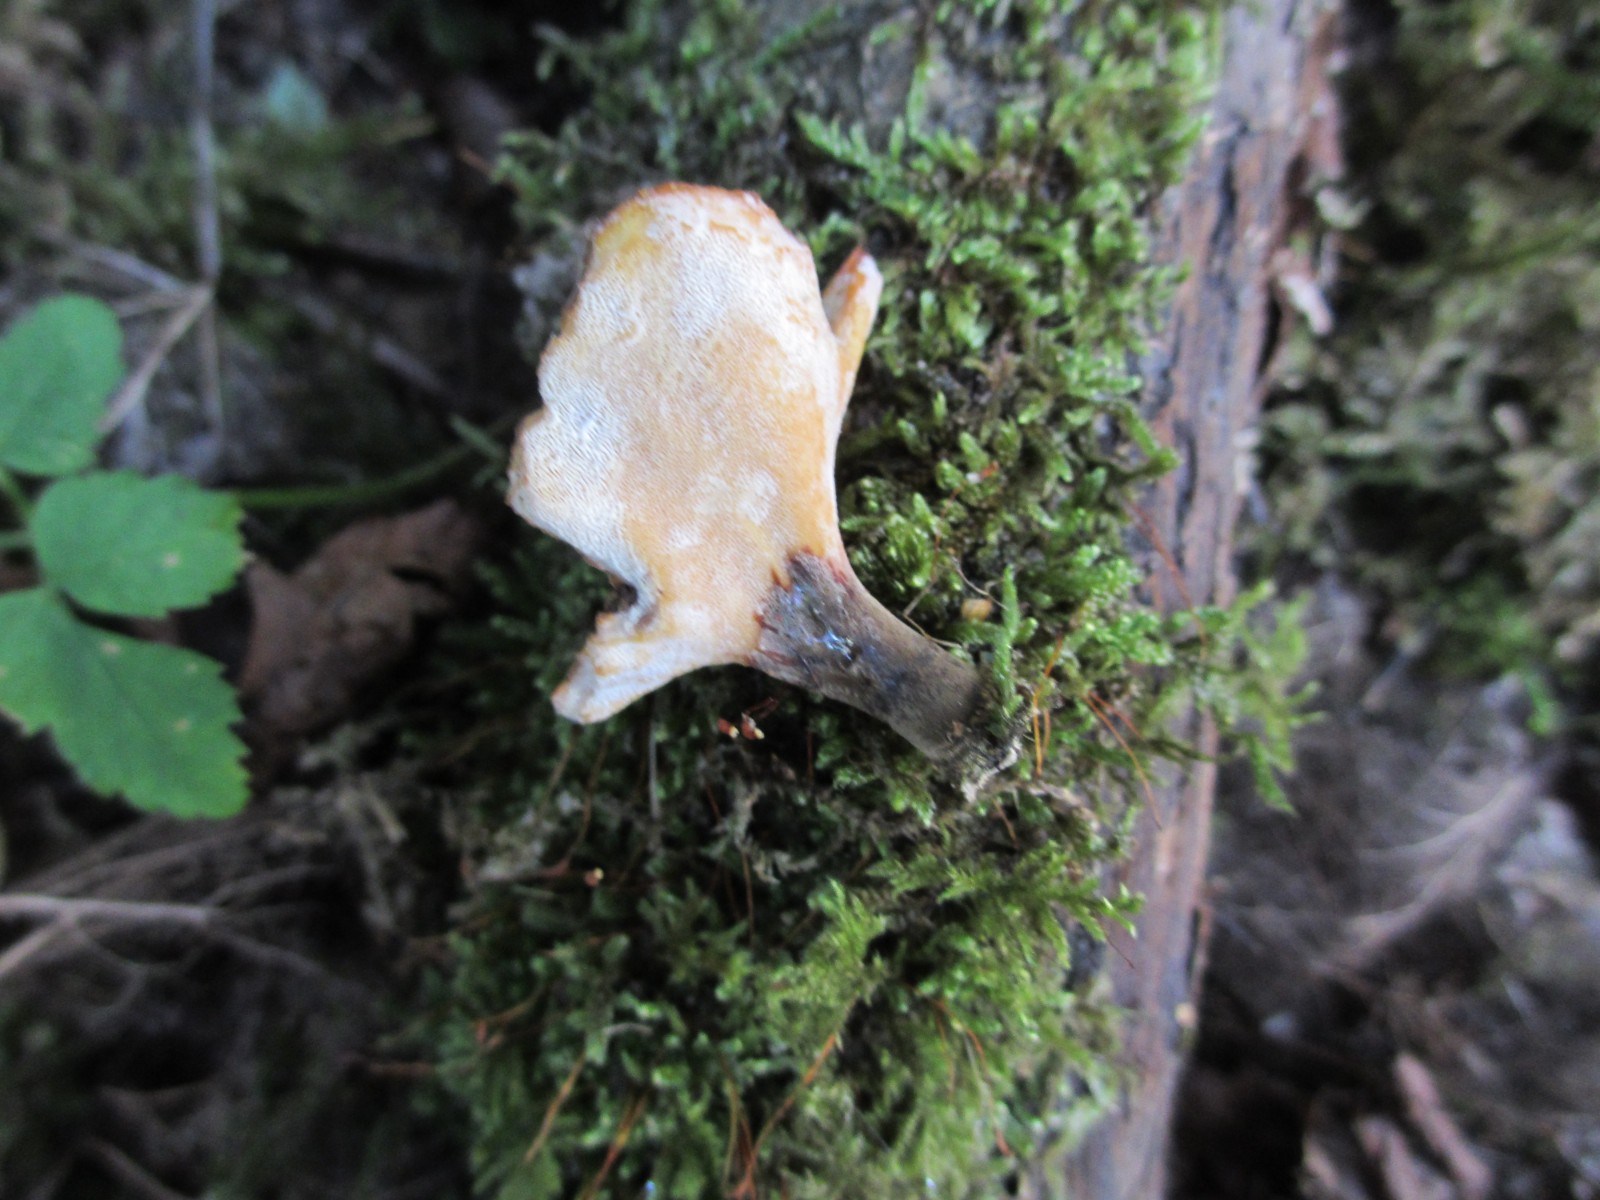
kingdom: Fungi
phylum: Basidiomycota
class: Agaricomycetes
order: Polyporales
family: Polyporaceae
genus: Cerioporus
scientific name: Cerioporus varius
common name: foranderlig stilkporesvamp
